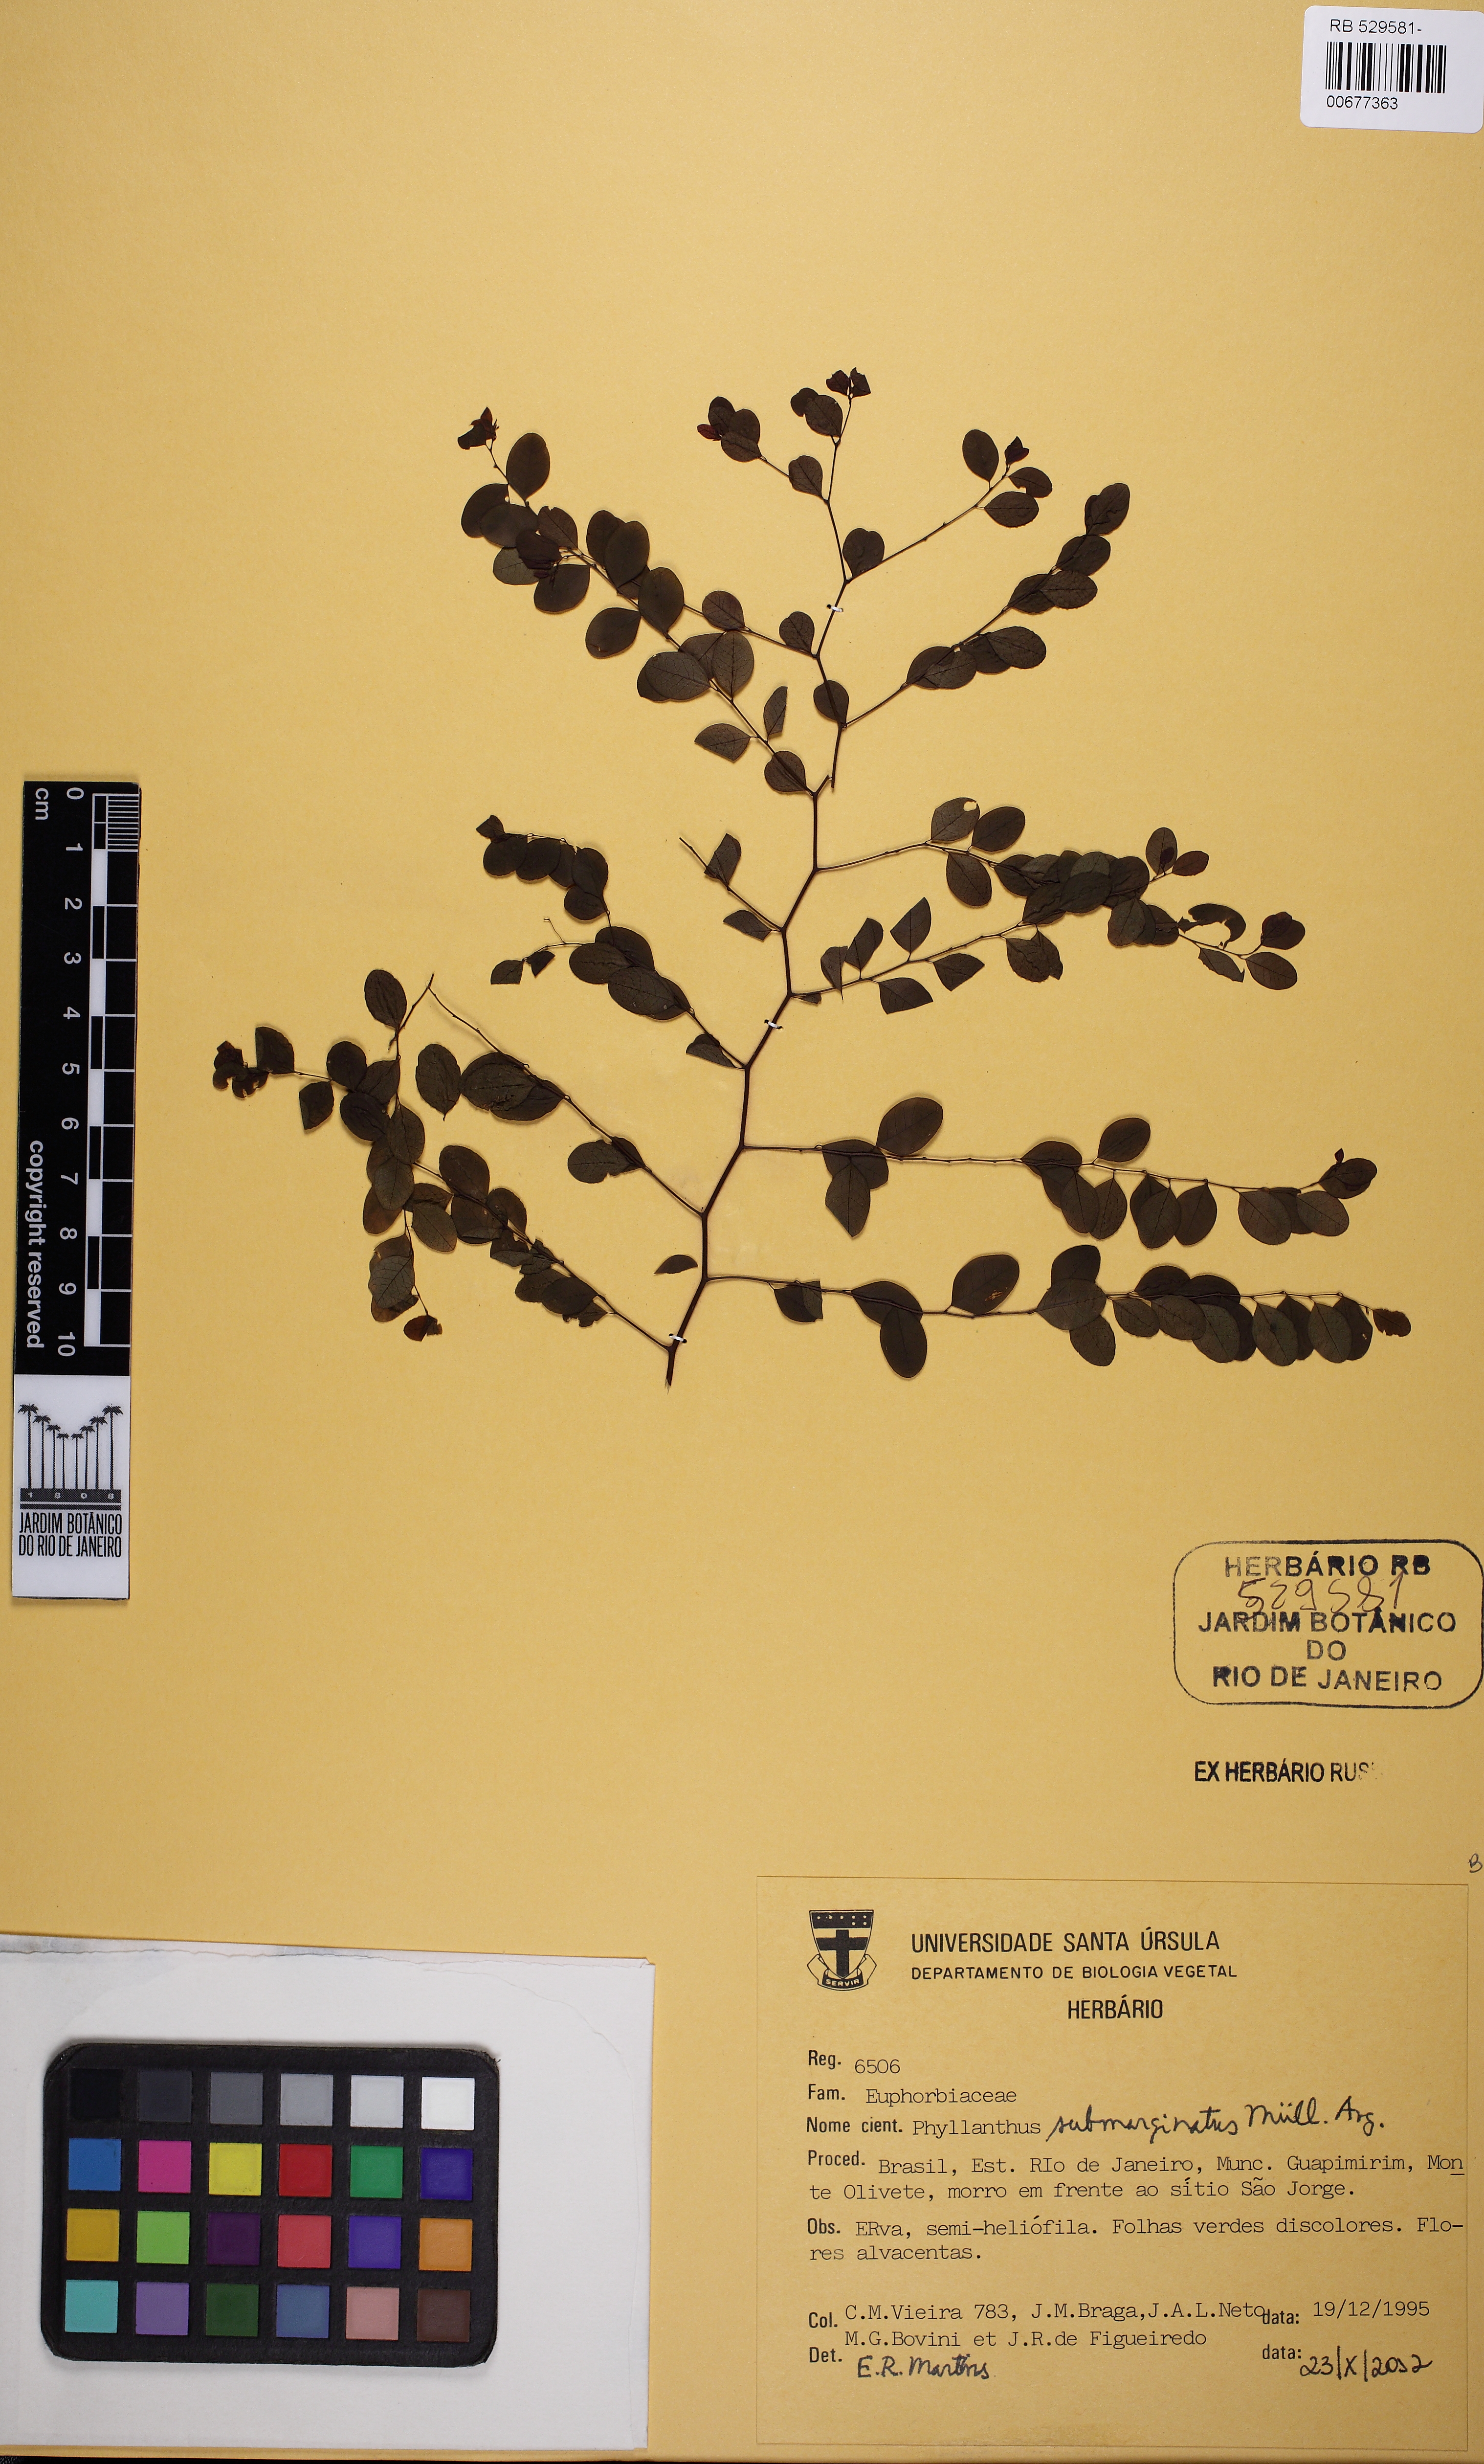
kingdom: Plantae
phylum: Tracheophyta
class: Magnoliopsida
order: Malpighiales
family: Phyllanthaceae
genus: Phyllanthus
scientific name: Phyllanthus subemarginatus
